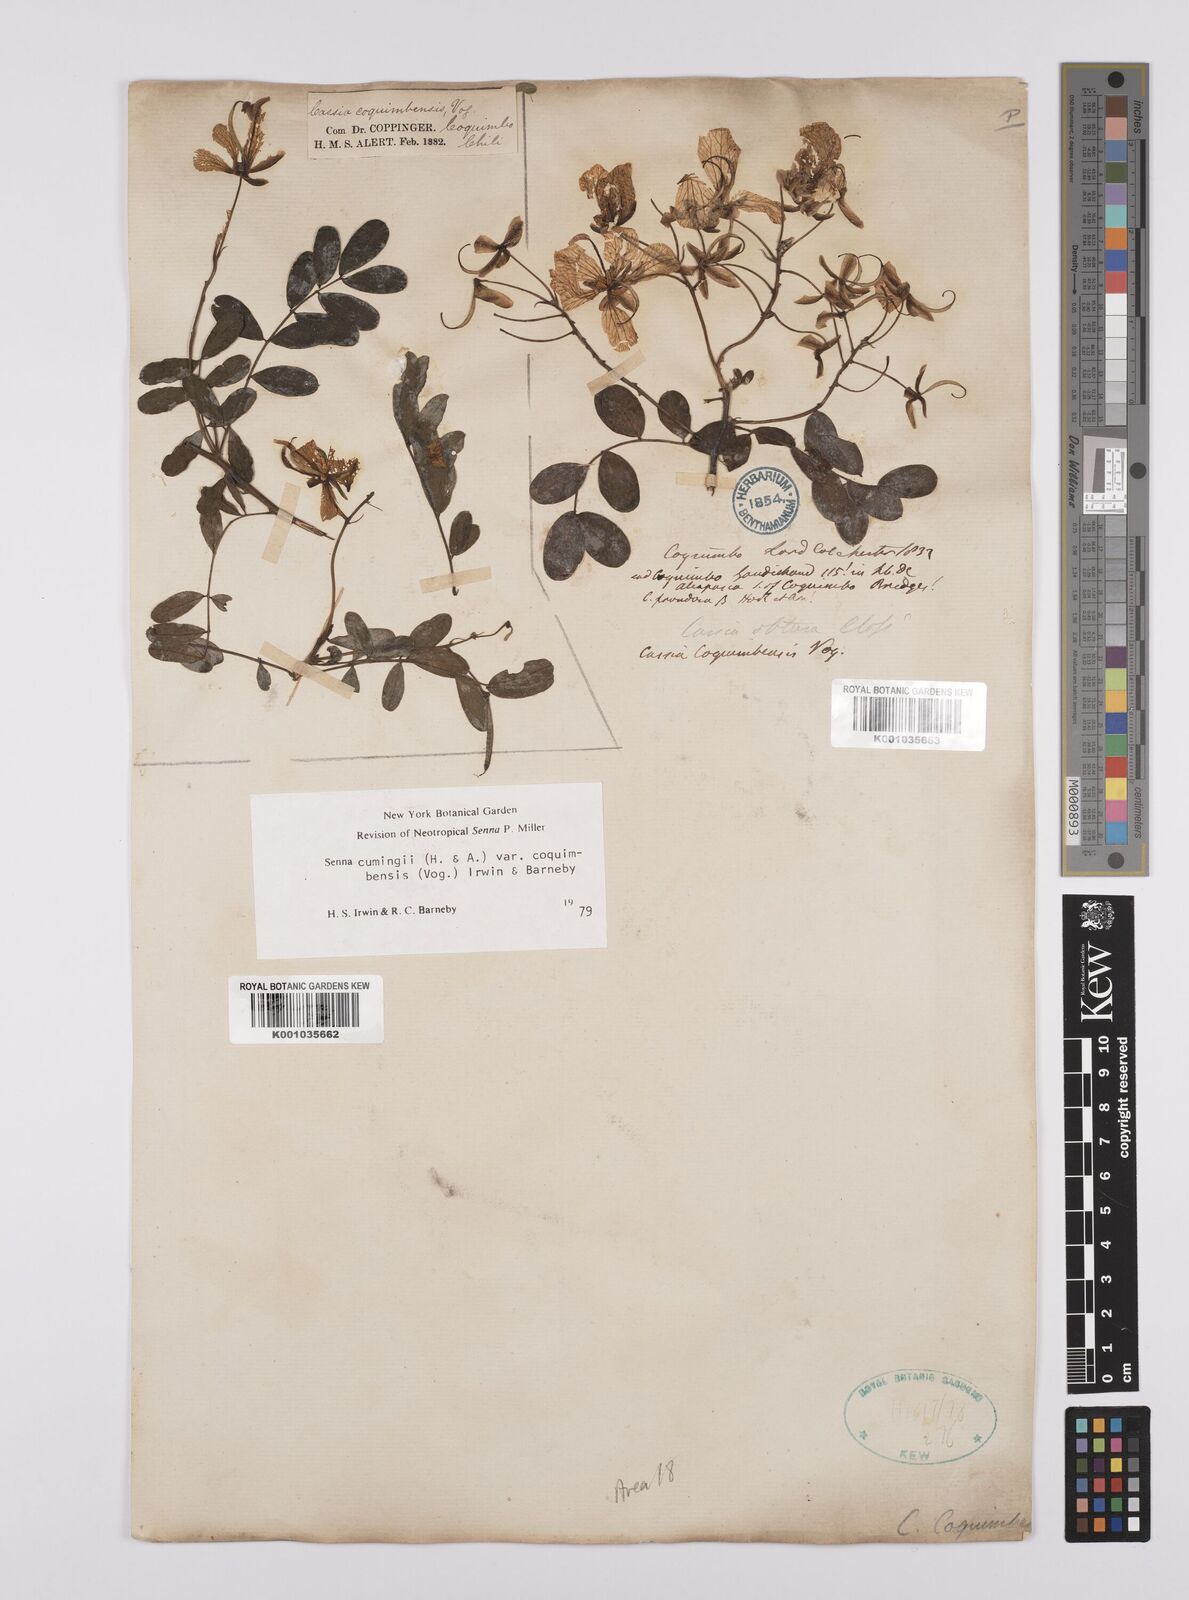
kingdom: Plantae
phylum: Tracheophyta
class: Magnoliopsida
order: Fabales
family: Fabaceae
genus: Senna
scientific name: Senna cumingii
